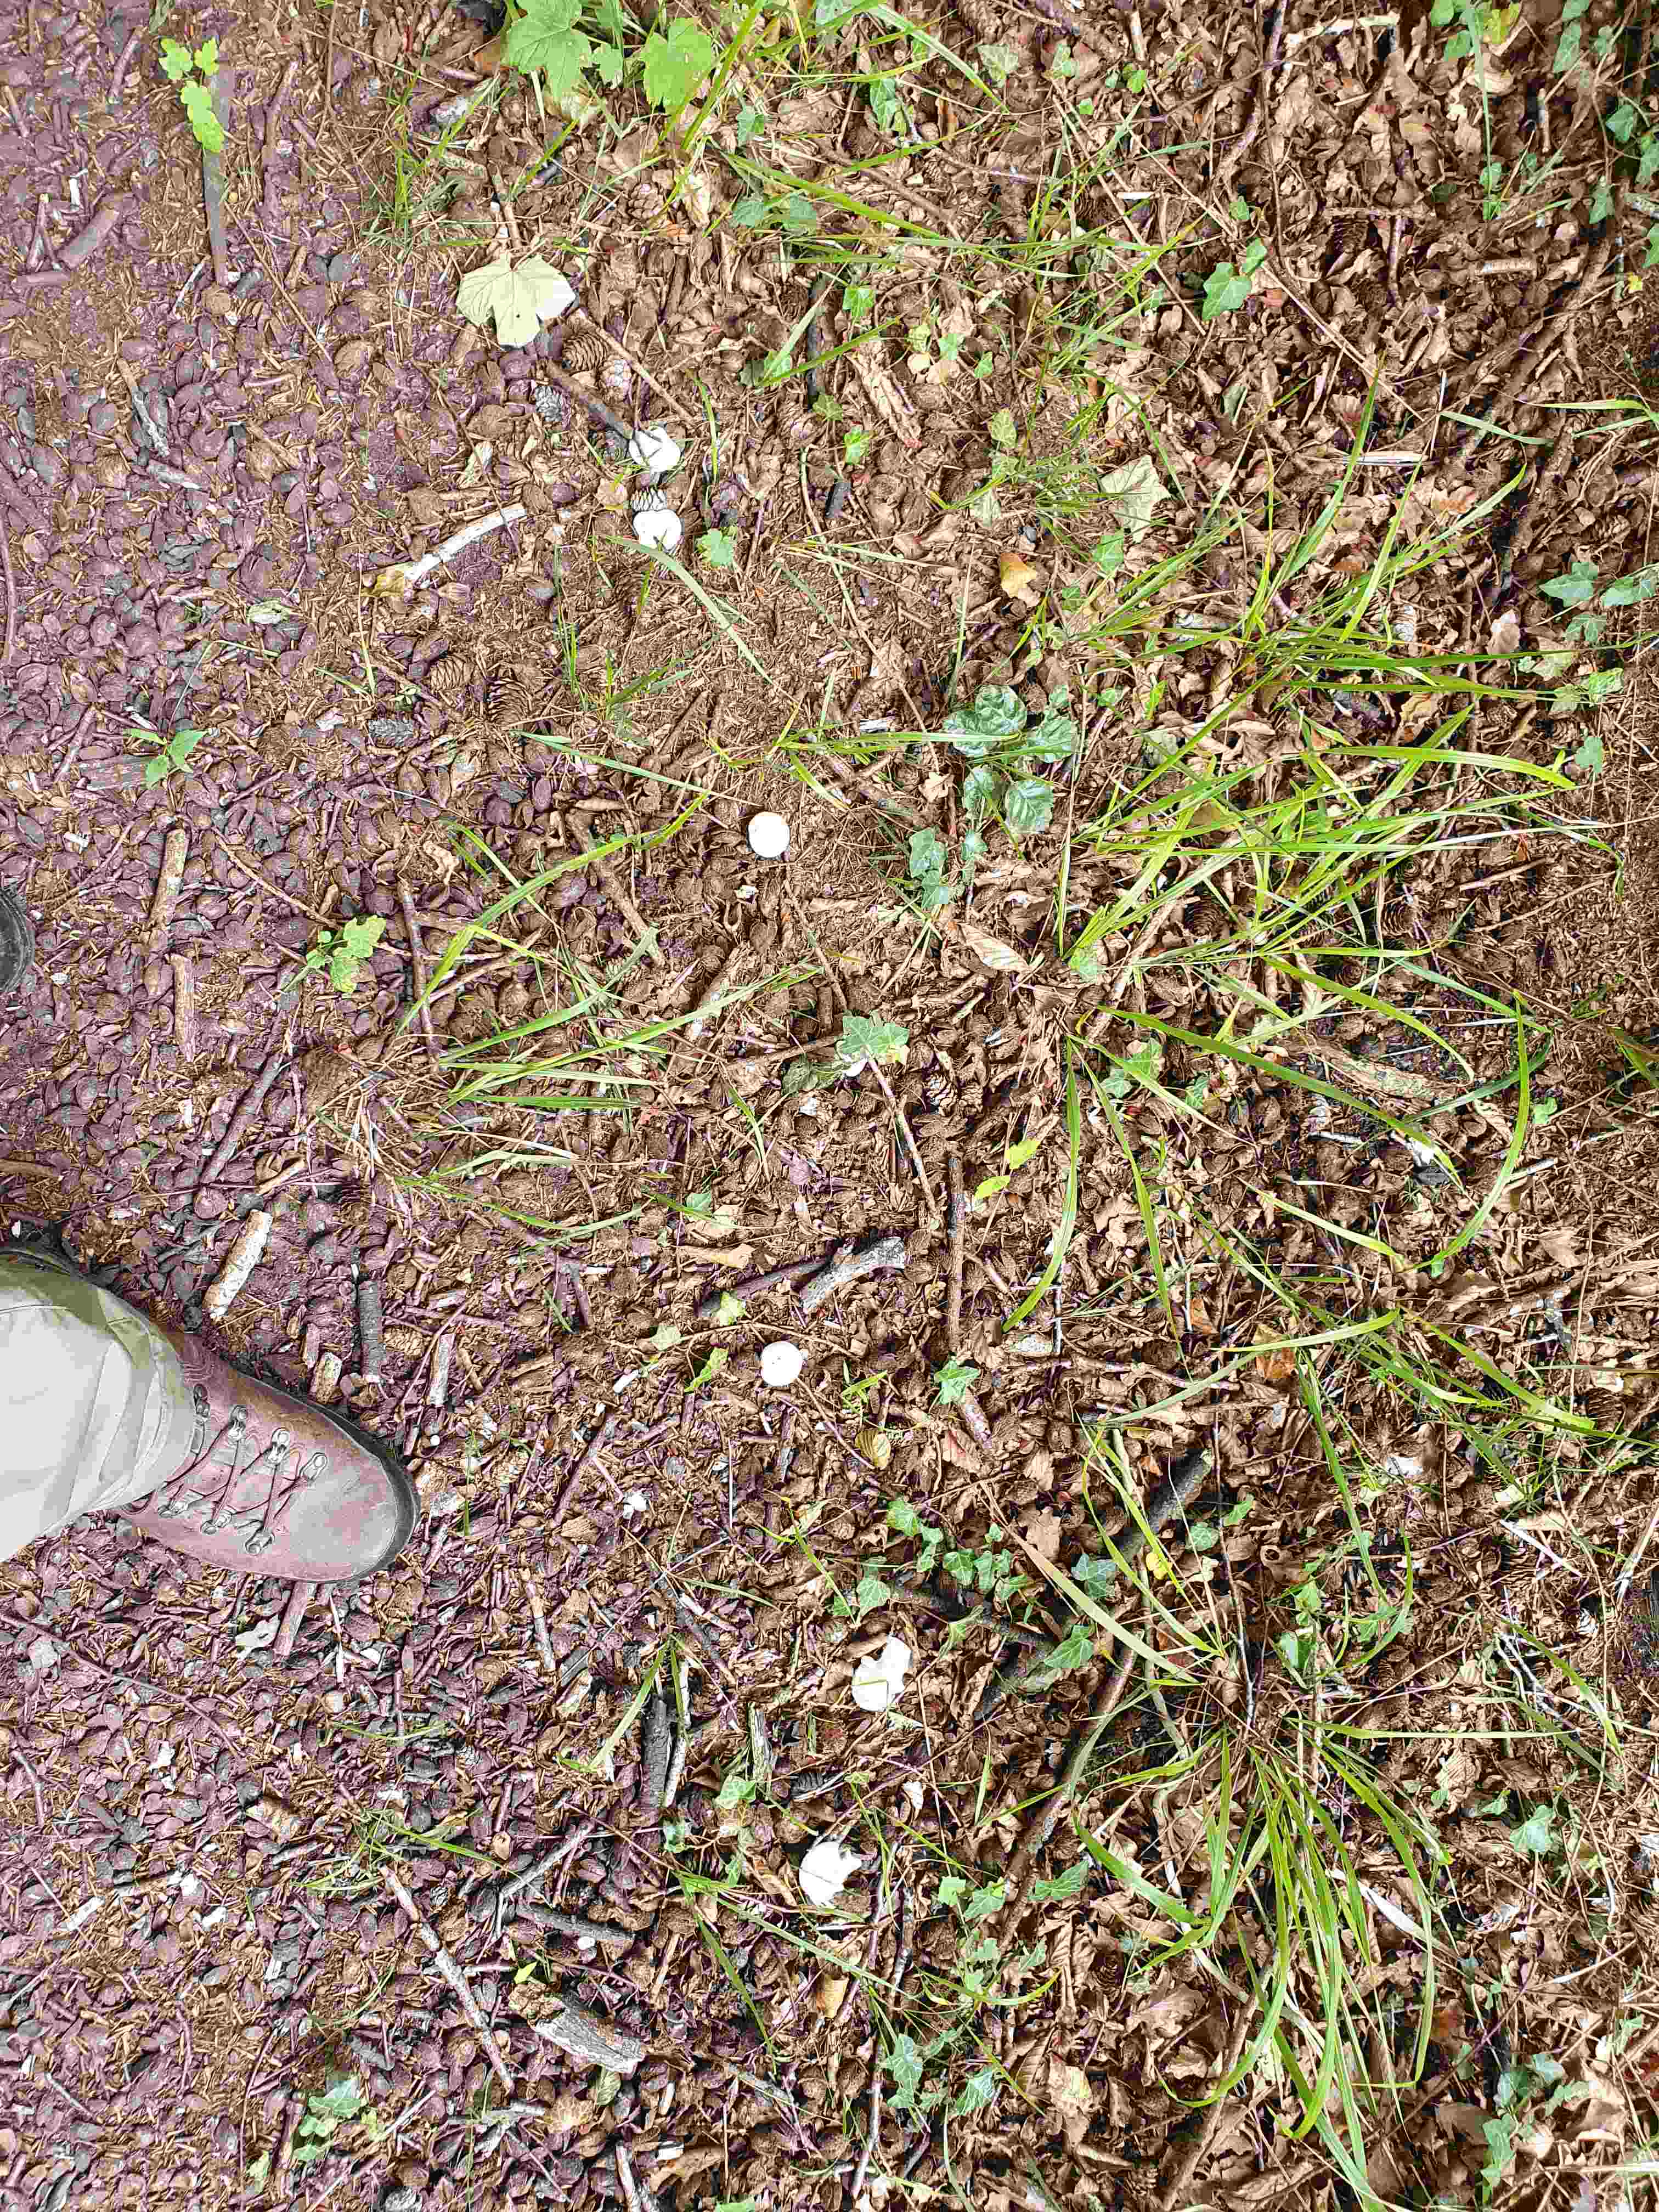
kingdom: Fungi
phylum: Basidiomycota
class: Agaricomycetes
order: Agaricales
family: Entolomataceae
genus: Clitopilus
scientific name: Clitopilus prunulus
